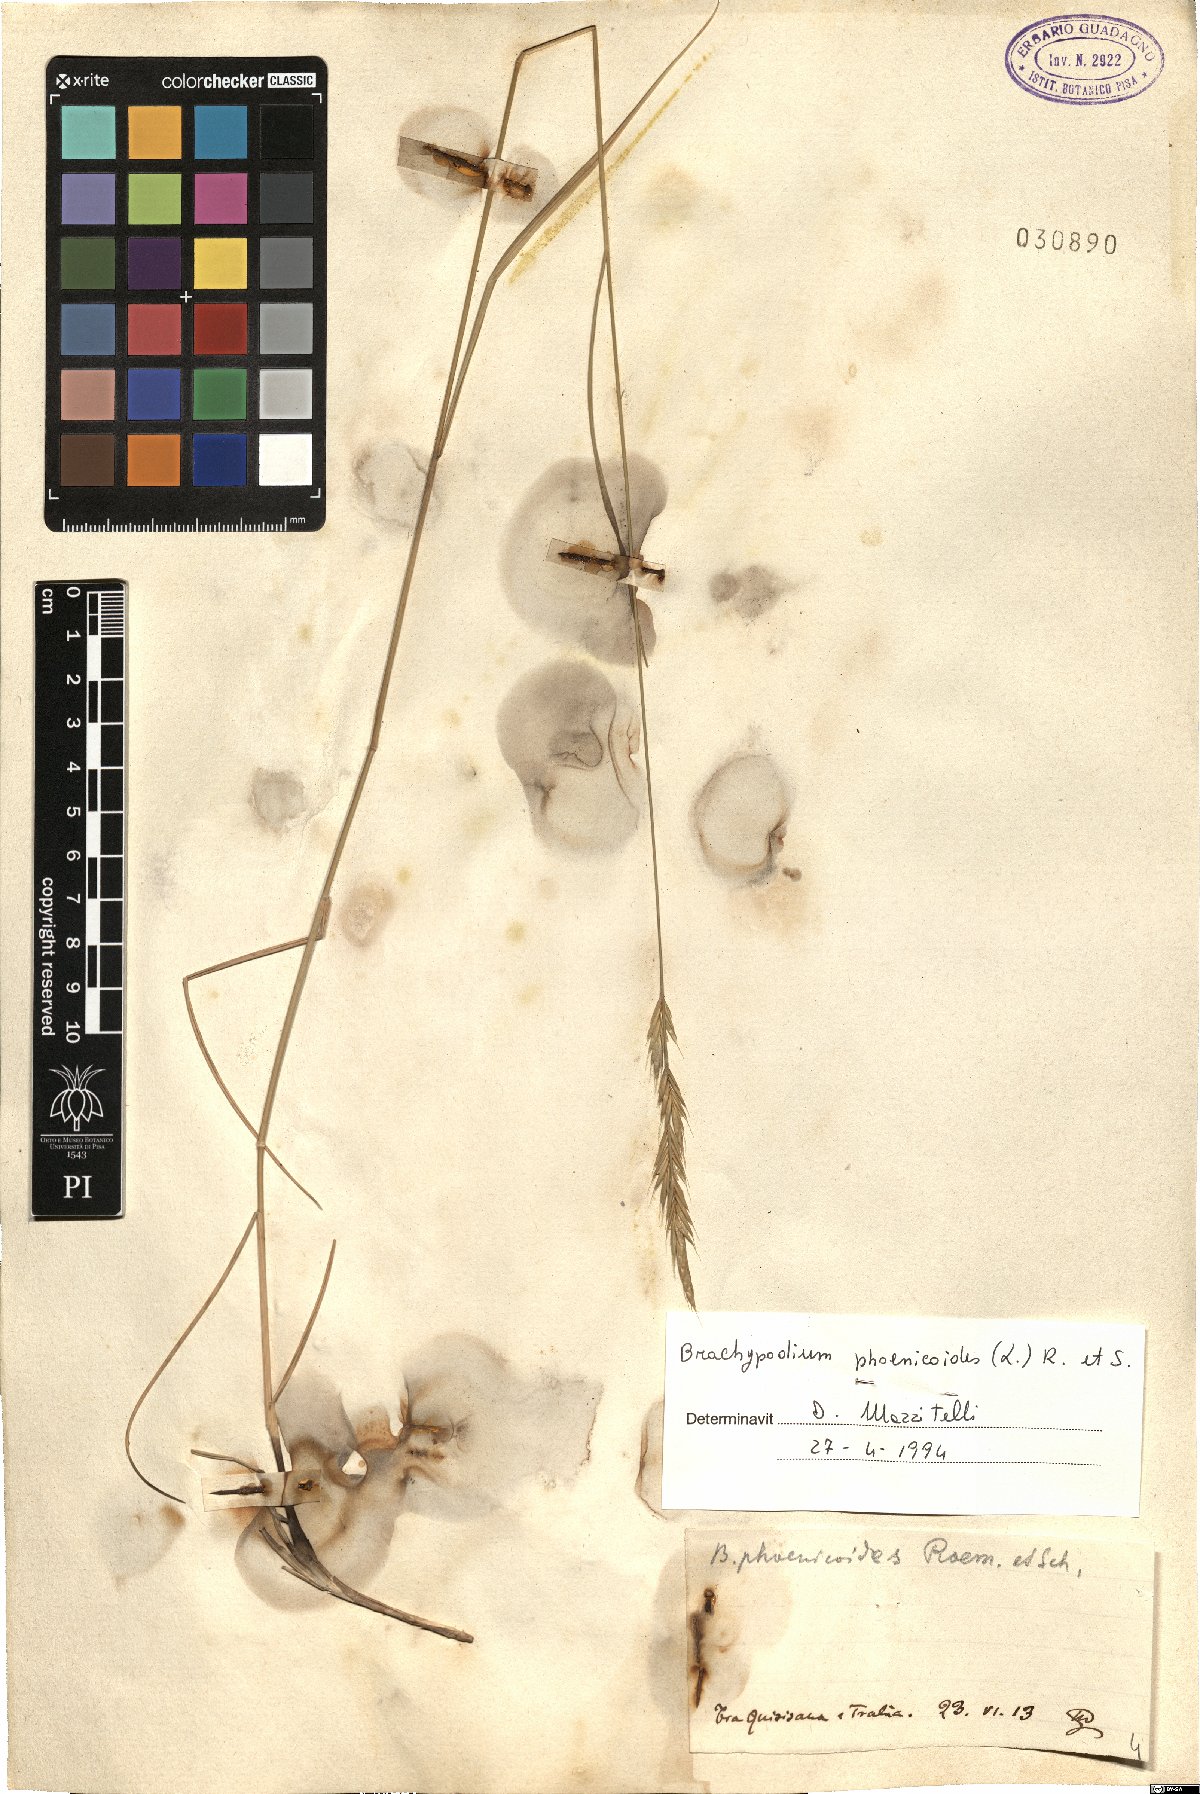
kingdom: Plantae
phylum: Tracheophyta
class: Liliopsida
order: Poales
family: Poaceae
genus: Brachypodium
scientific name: Brachypodium phoenicoides
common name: Thinleaf false brome
